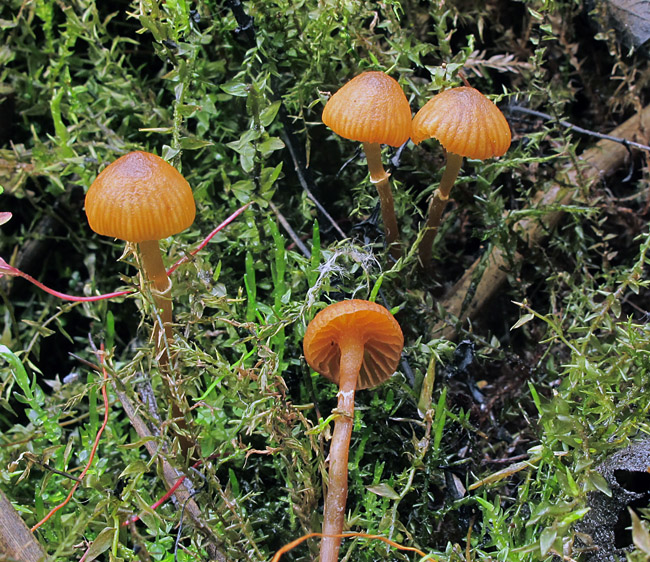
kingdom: Fungi
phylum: Basidiomycota
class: Agaricomycetes
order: Agaricales
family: Hymenogastraceae
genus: Galerina
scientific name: Galerina jaapii
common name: hvidbæltet hjelmhat
